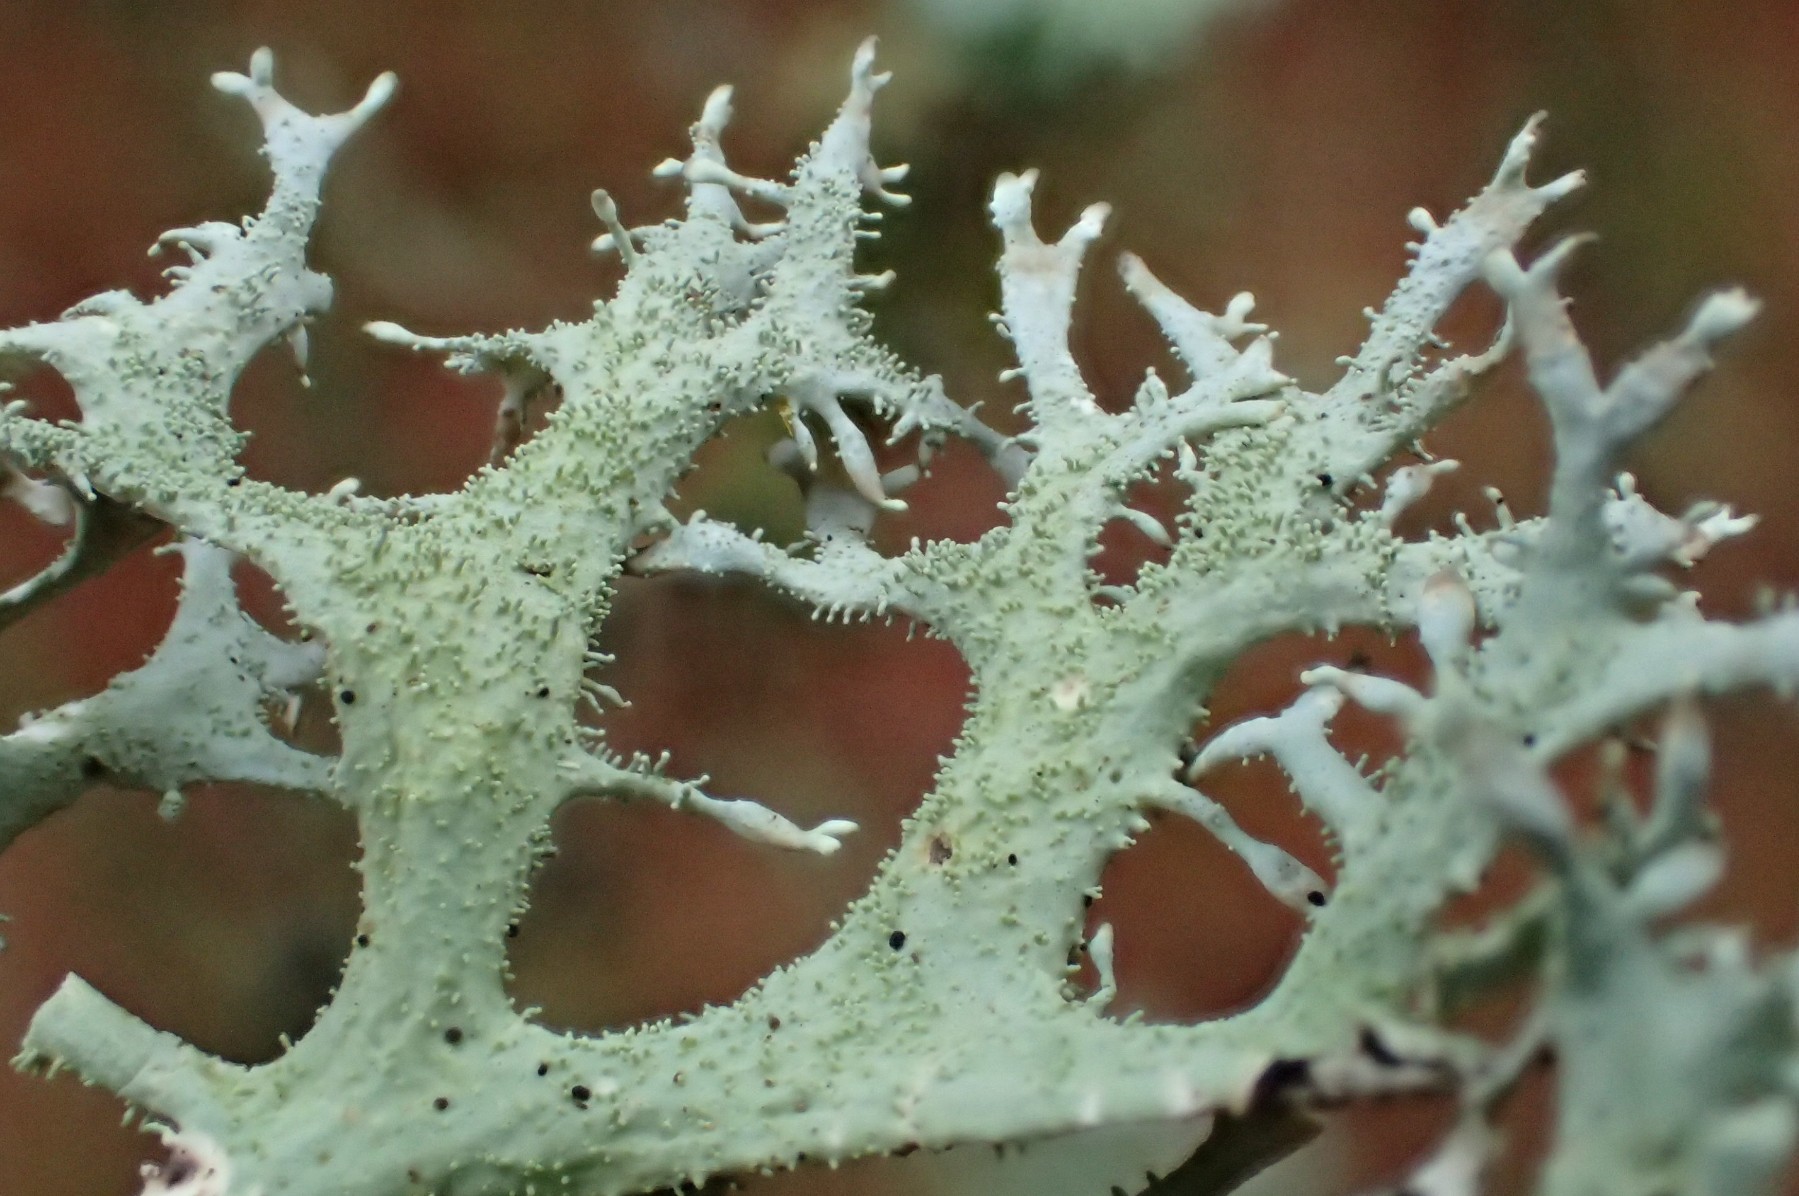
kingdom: Fungi
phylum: Ascomycota
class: Lecanoromycetes
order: Lecanorales
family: Parmeliaceae
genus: Pseudevernia
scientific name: Pseudevernia furfuracea
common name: grå fyrrelav
